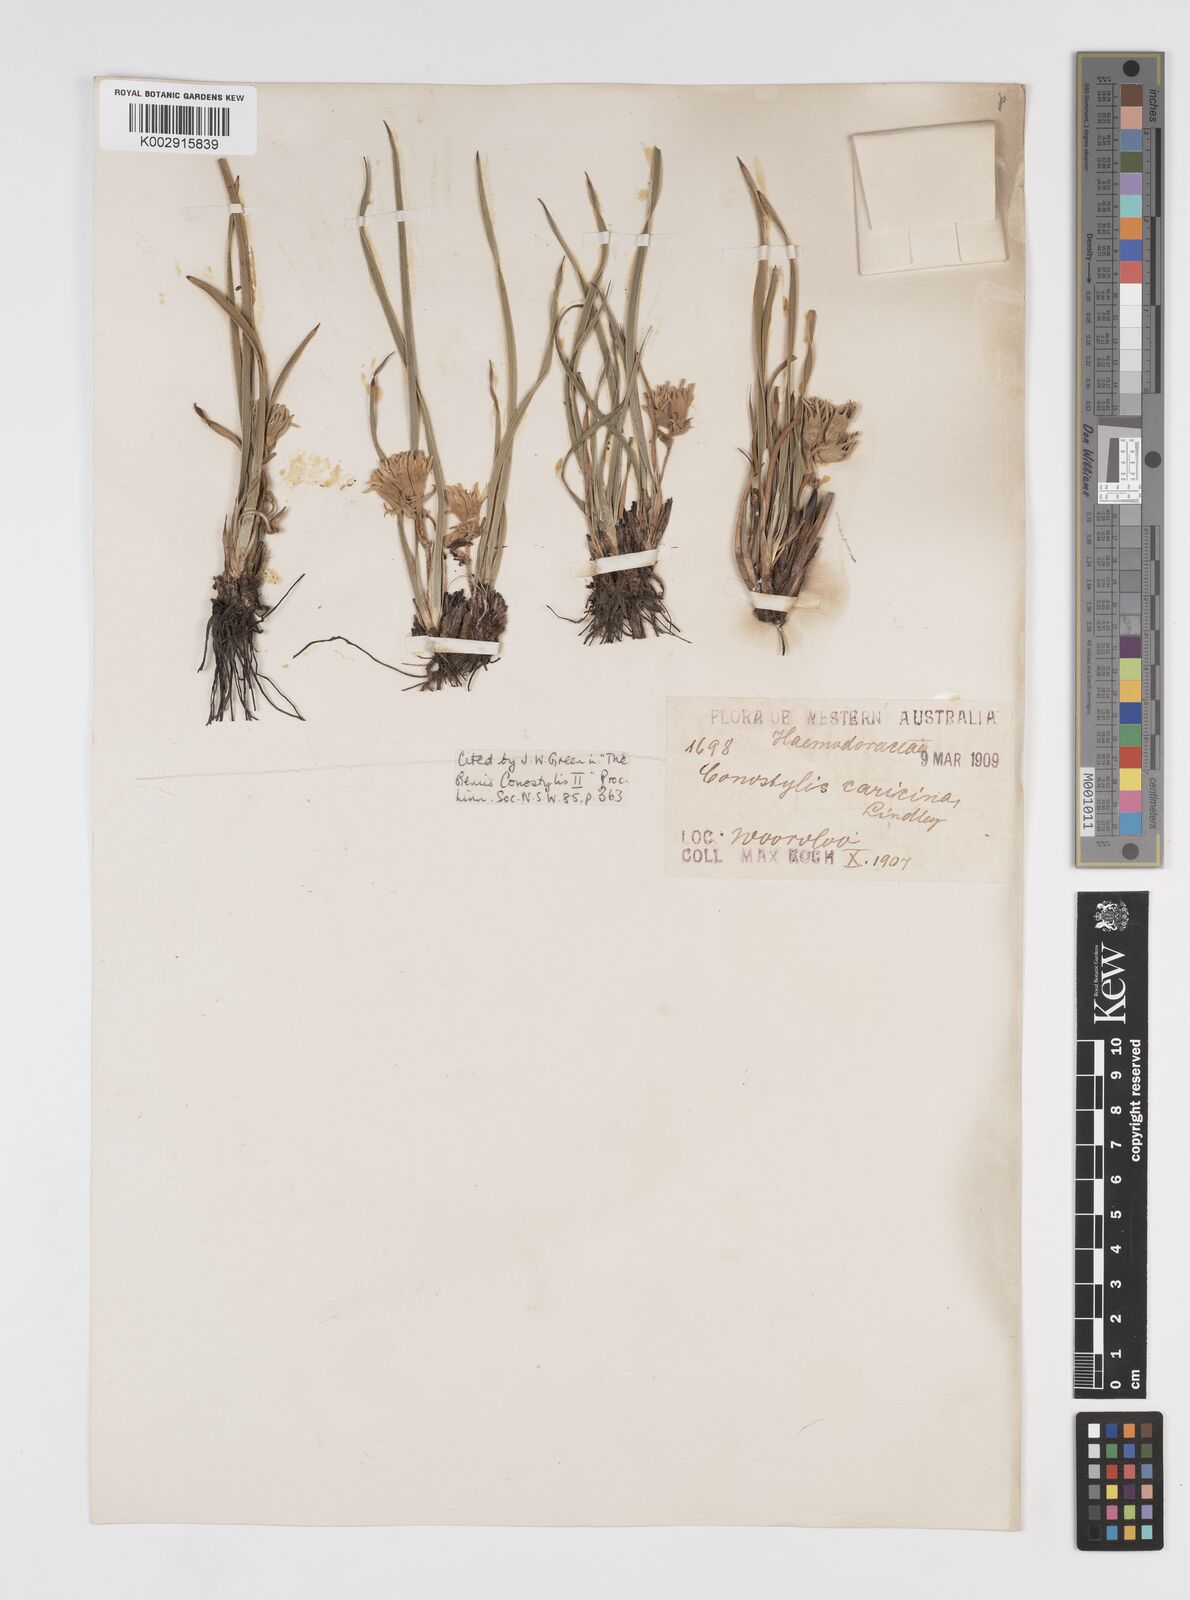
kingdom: Plantae
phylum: Tracheophyta
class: Liliopsida
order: Commelinales
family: Haemodoraceae
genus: Conostylis
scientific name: Conostylis caricina
